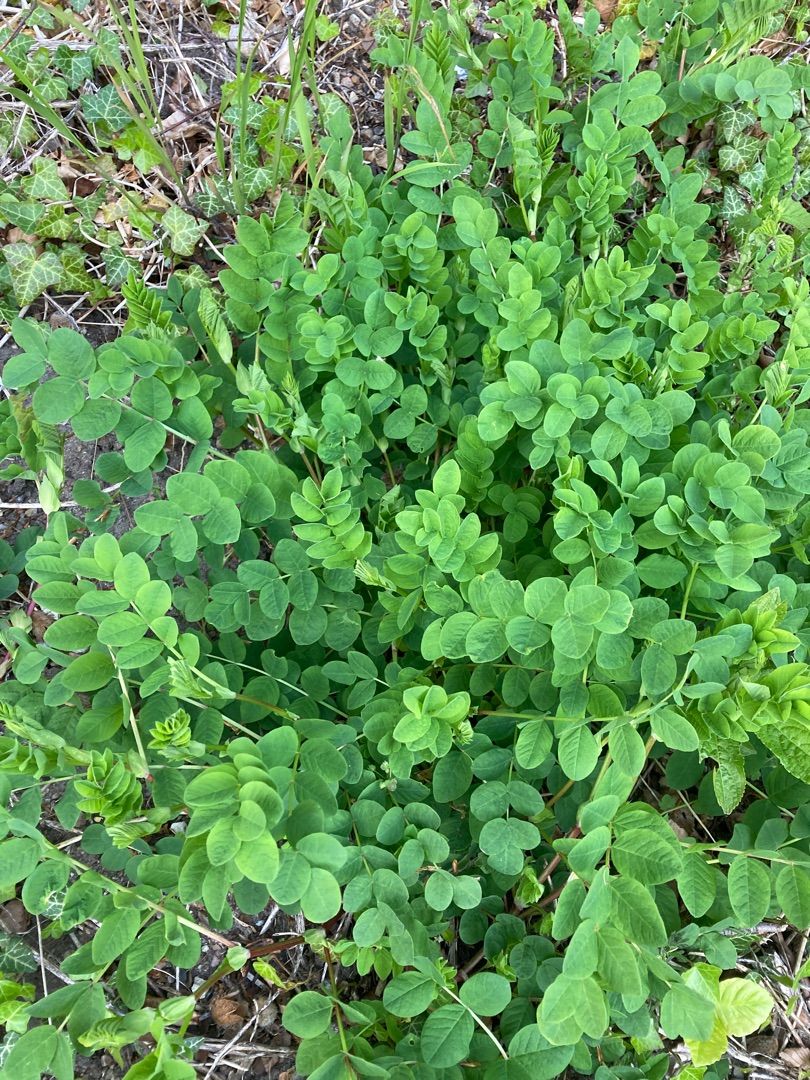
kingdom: Plantae
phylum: Tracheophyta
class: Magnoliopsida
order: Fabales
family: Fabaceae
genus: Astragalus
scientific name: Astragalus glycyphyllos
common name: Sød astragel
